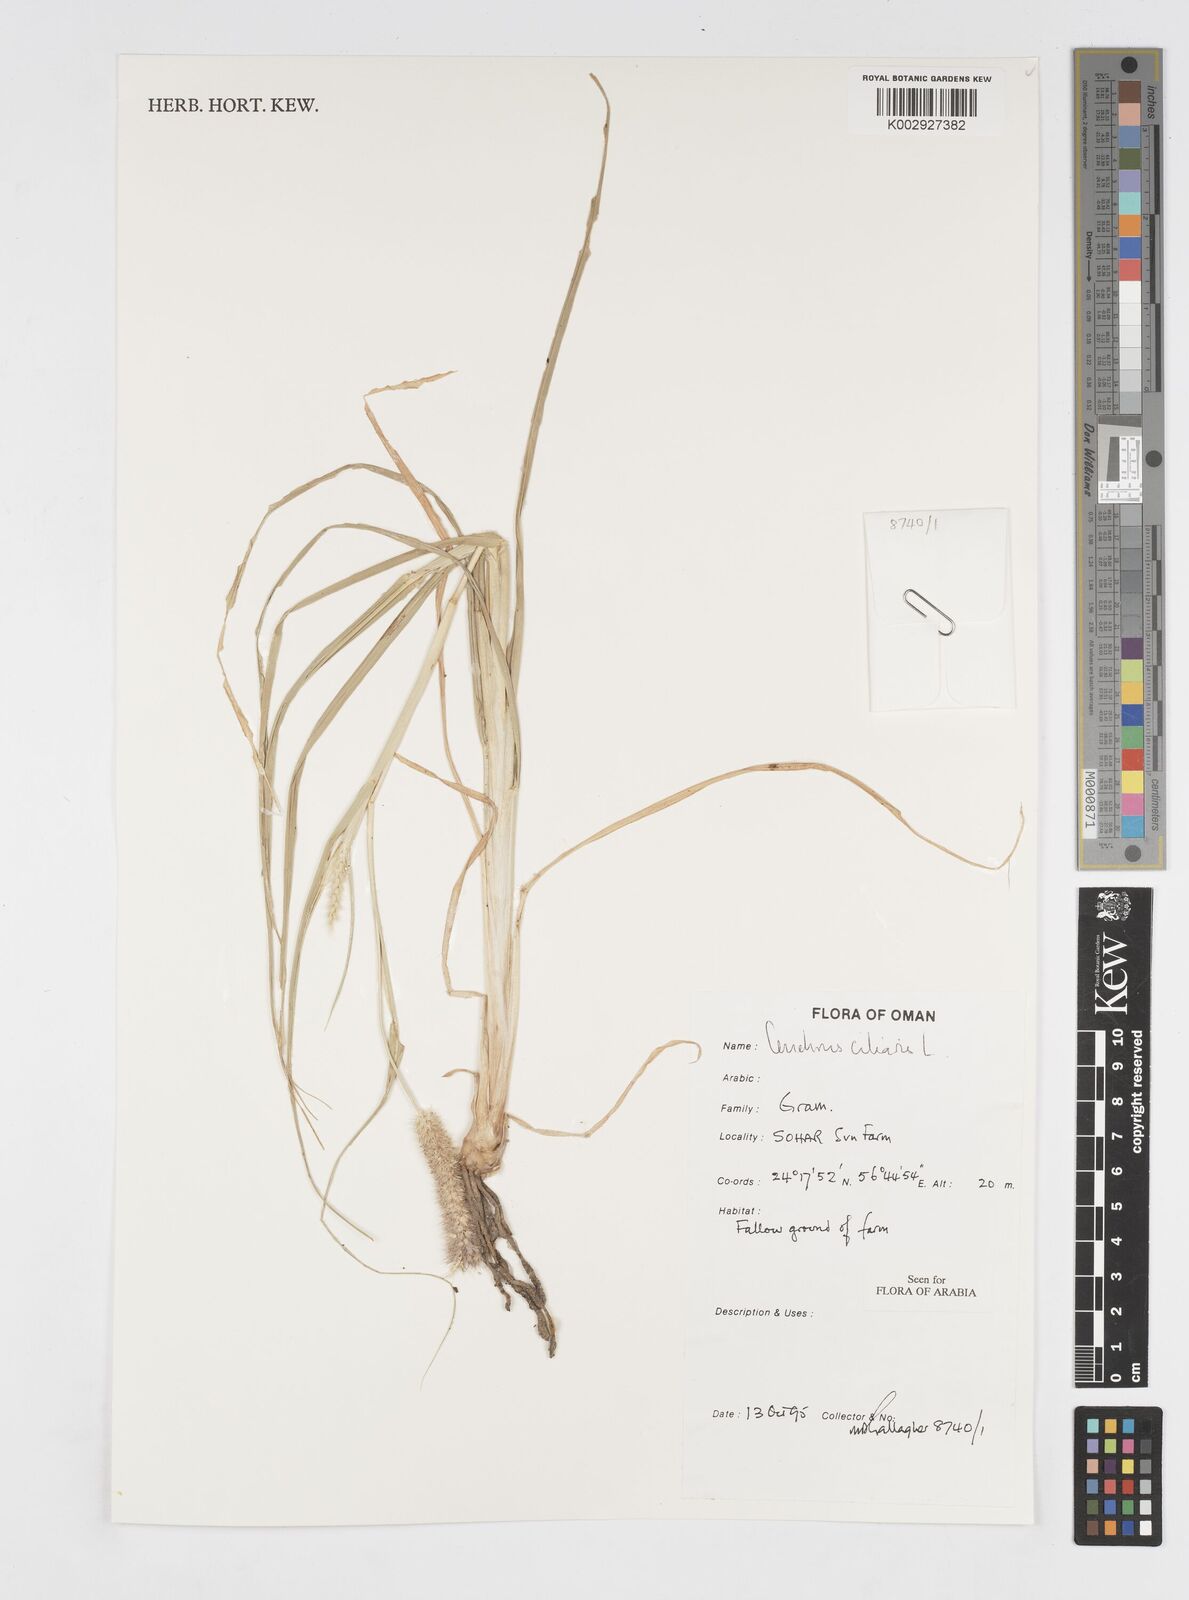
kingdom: Plantae
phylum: Tracheophyta
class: Liliopsida
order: Poales
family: Poaceae
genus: Cenchrus
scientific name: Cenchrus ciliaris
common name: Buffelgrass
